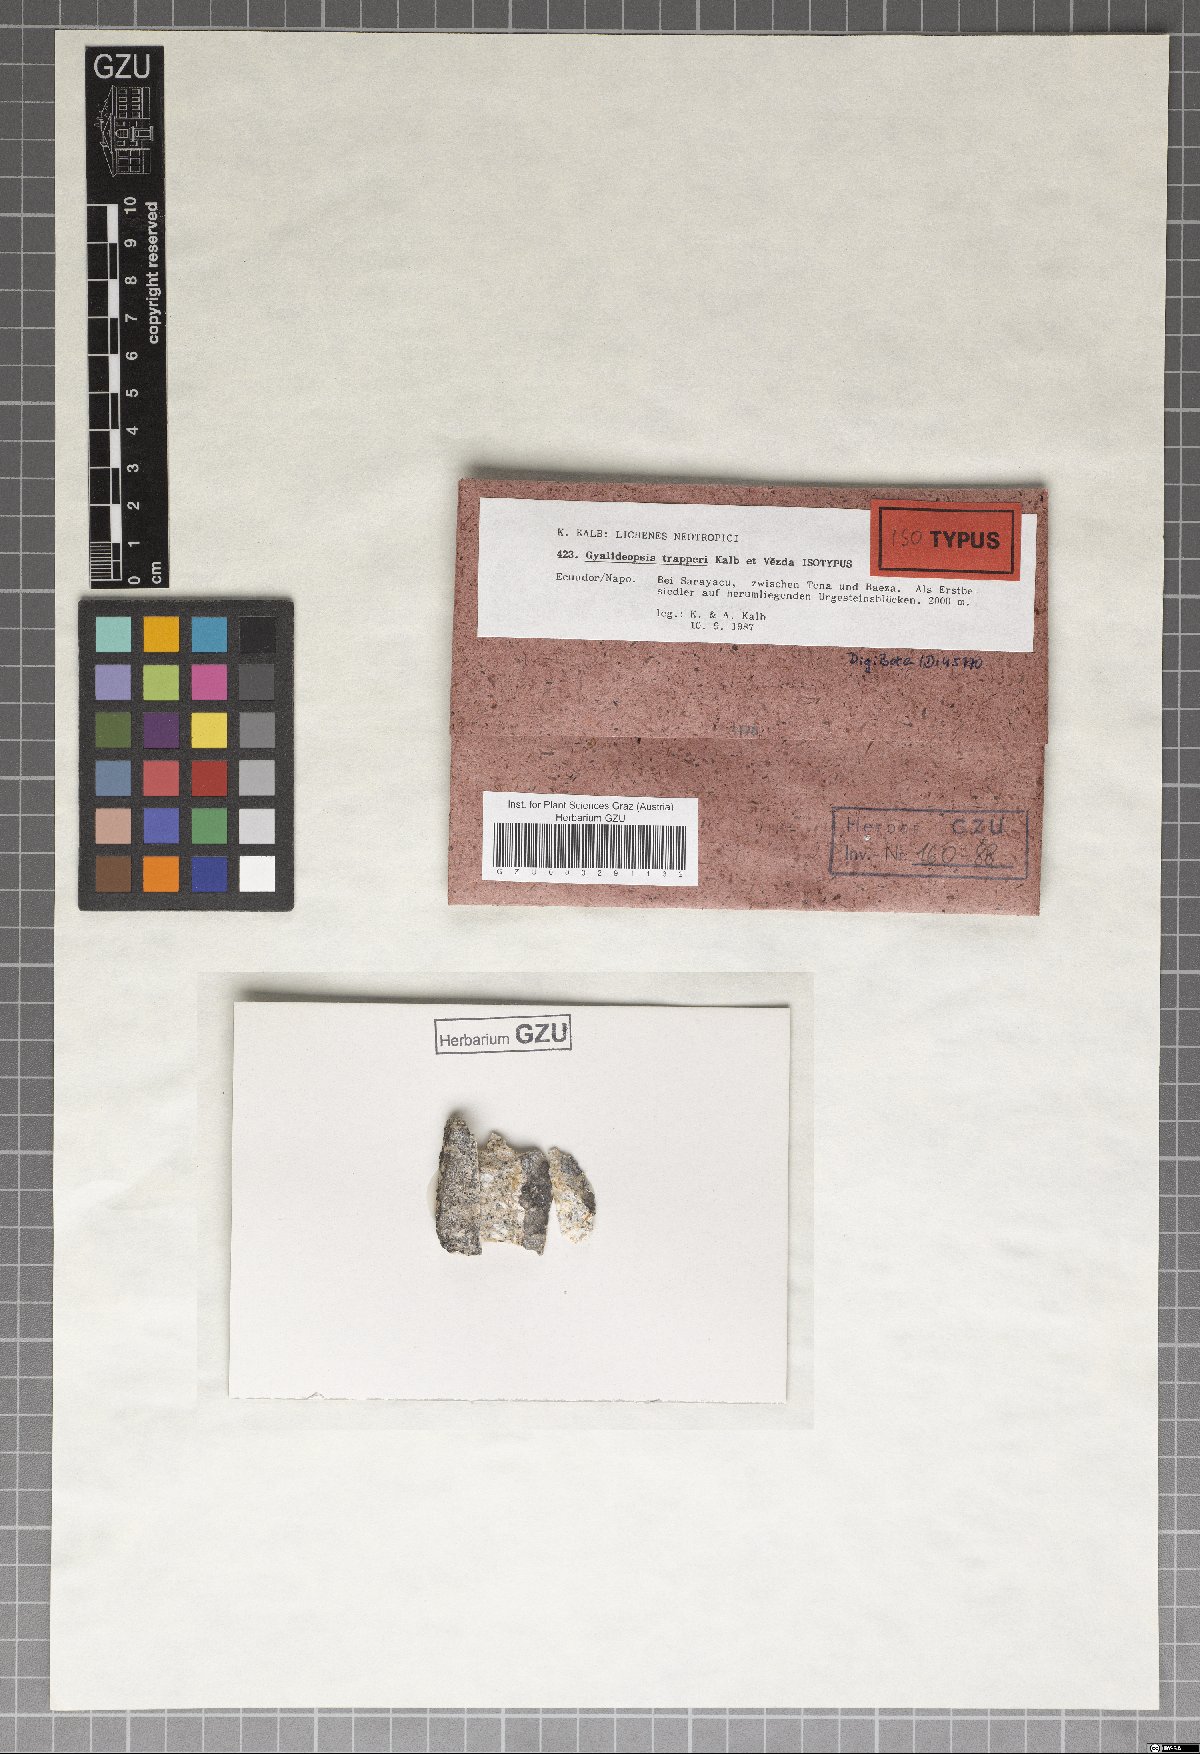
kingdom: Fungi
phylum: Ascomycota
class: Lecanoromycetes
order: Ostropales
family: Gomphillaceae
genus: Diploschistella
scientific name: Diploschistella trapperi
